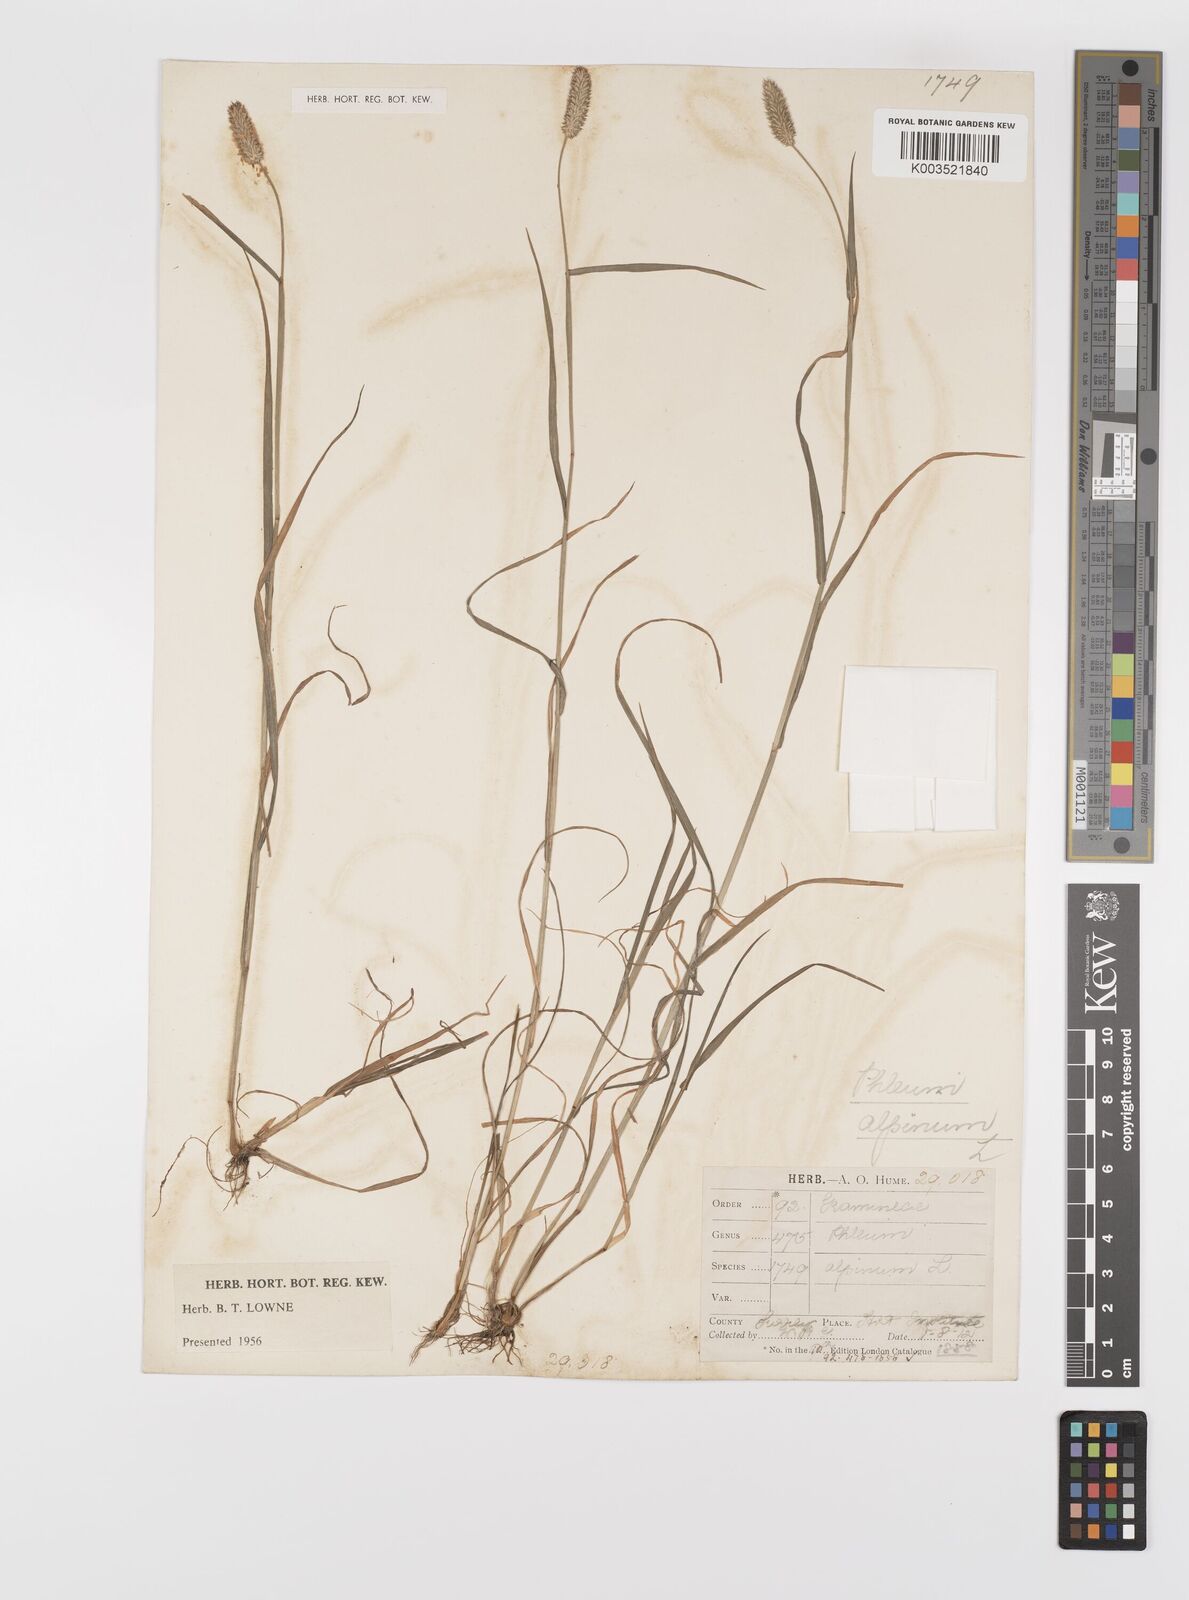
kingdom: Plantae
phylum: Tracheophyta
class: Liliopsida
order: Poales
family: Poaceae
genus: Phleum
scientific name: Phleum bertolonii
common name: Smaller cat's-tail
